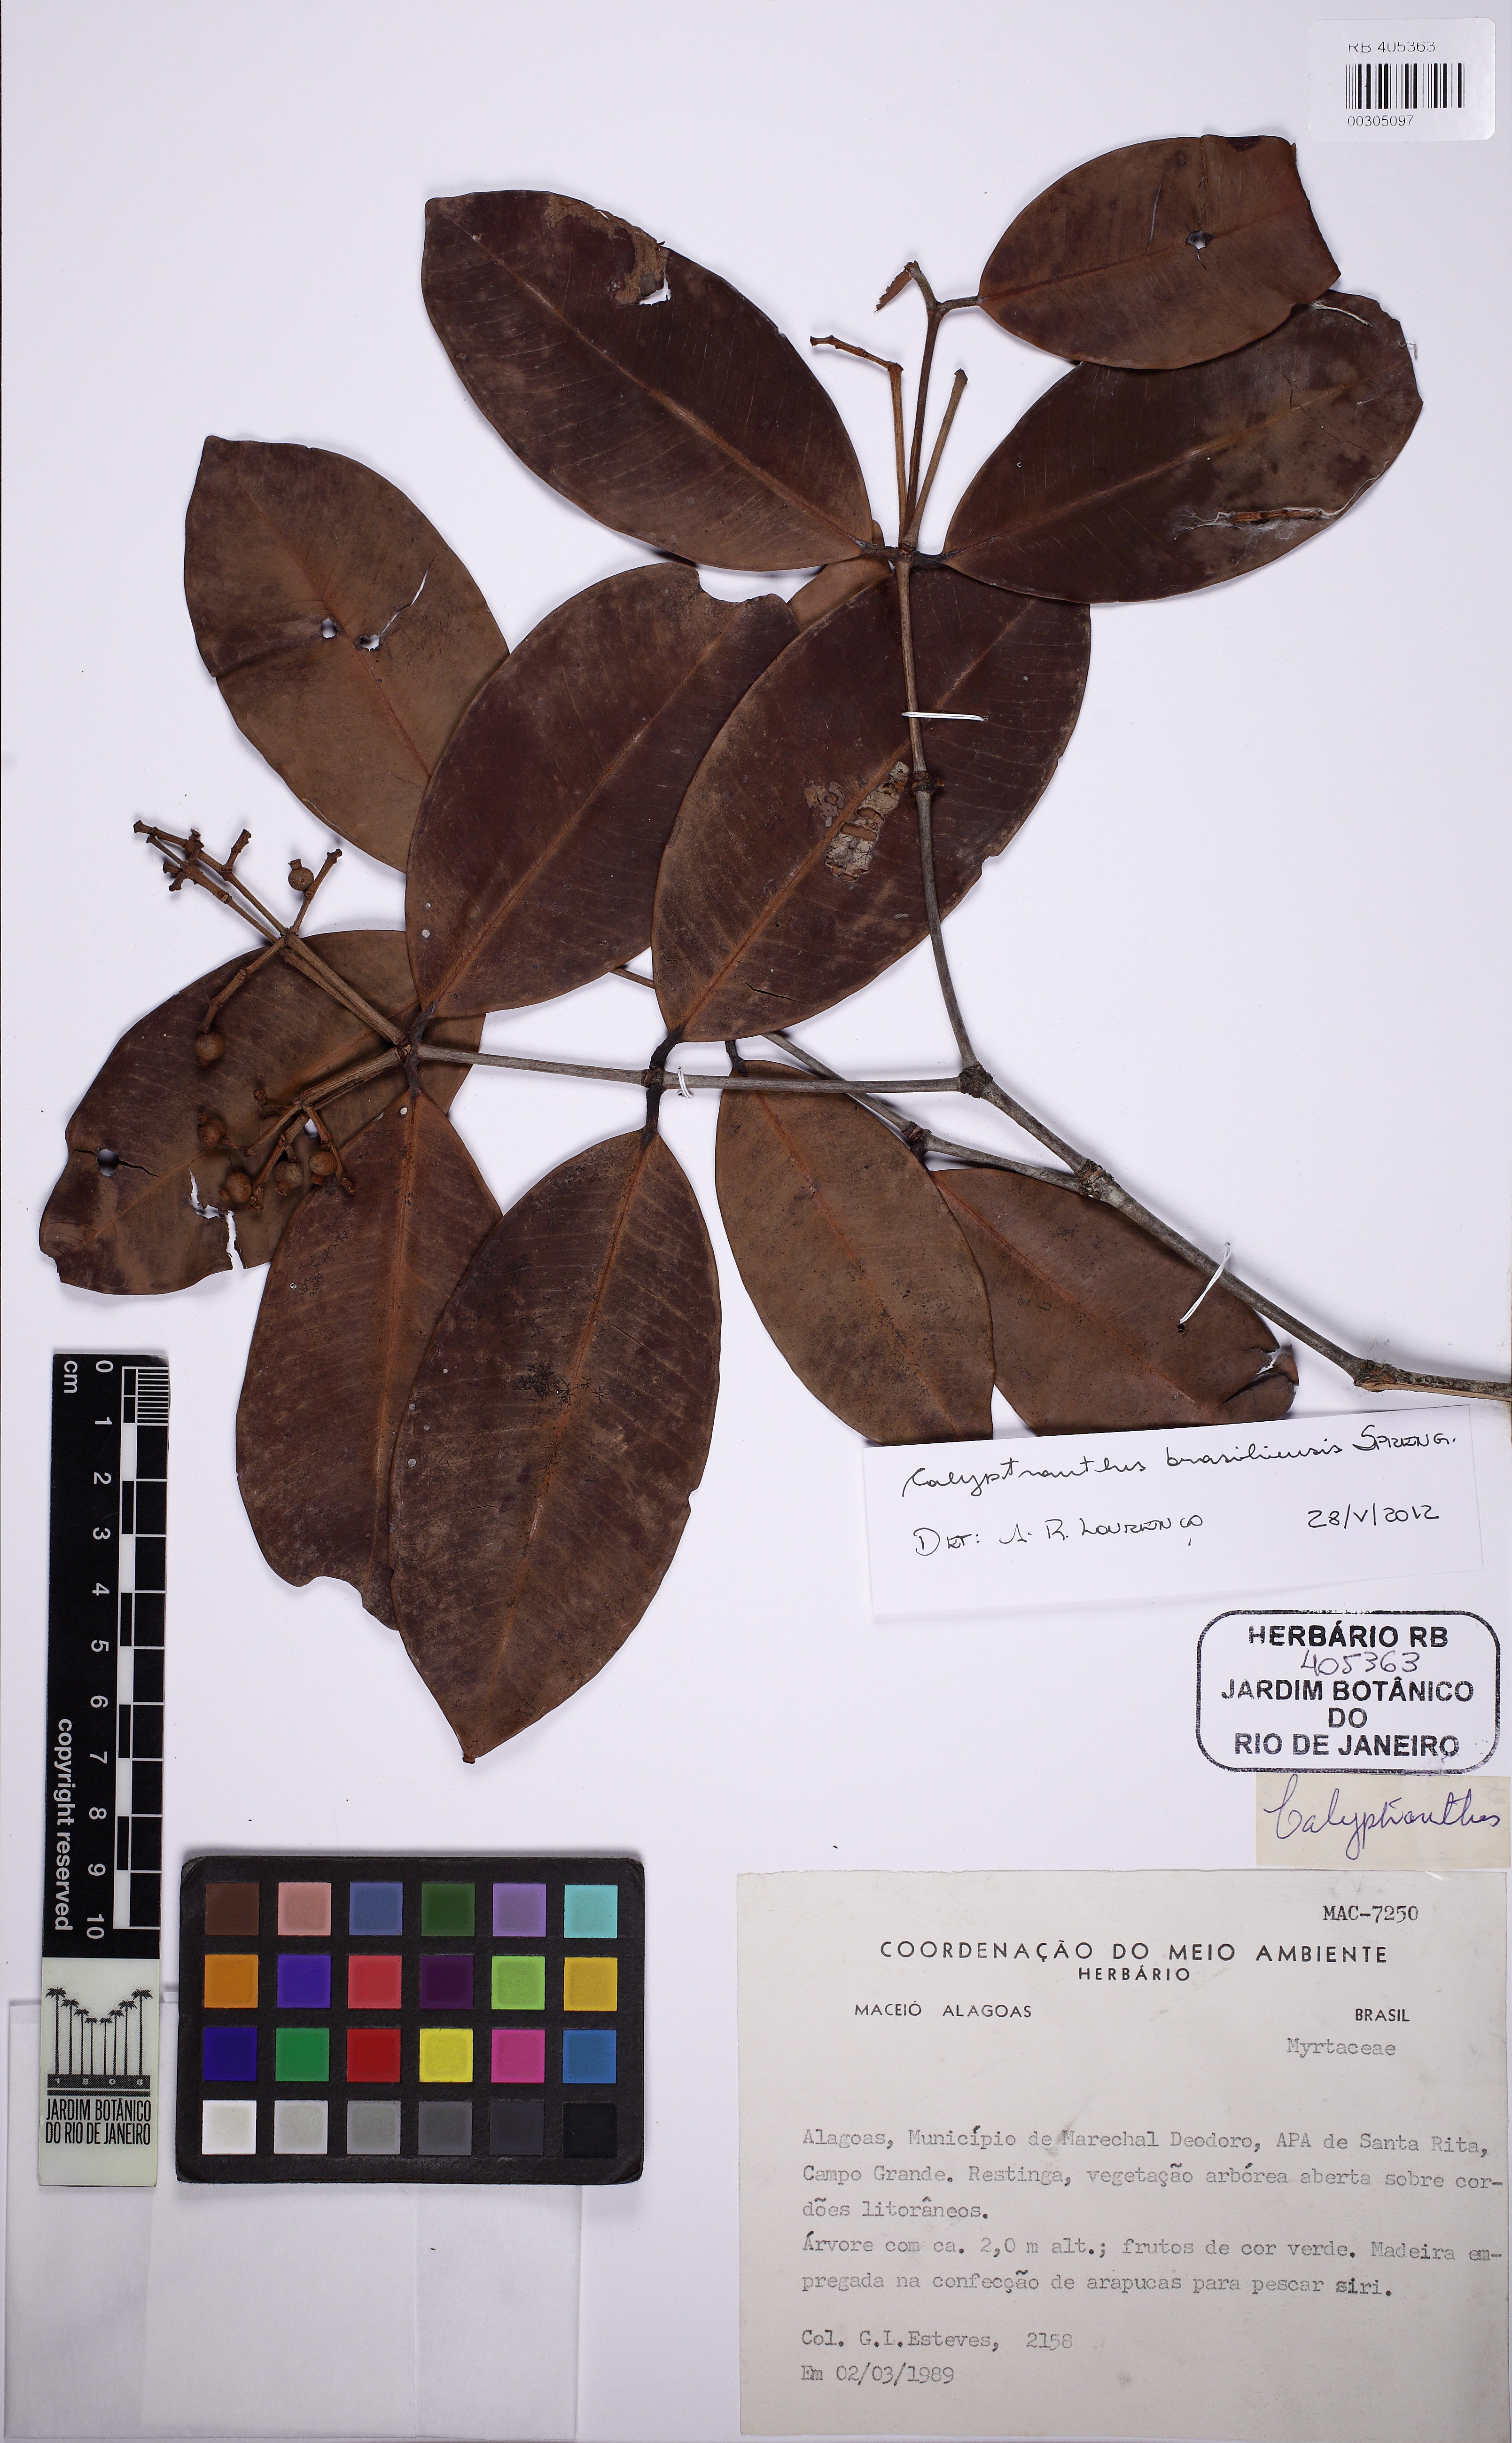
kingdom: Plantae
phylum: Tracheophyta
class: Magnoliopsida
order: Myrtales
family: Myrtaceae
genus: Myrcia
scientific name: Myrcia neobrasiliensis
